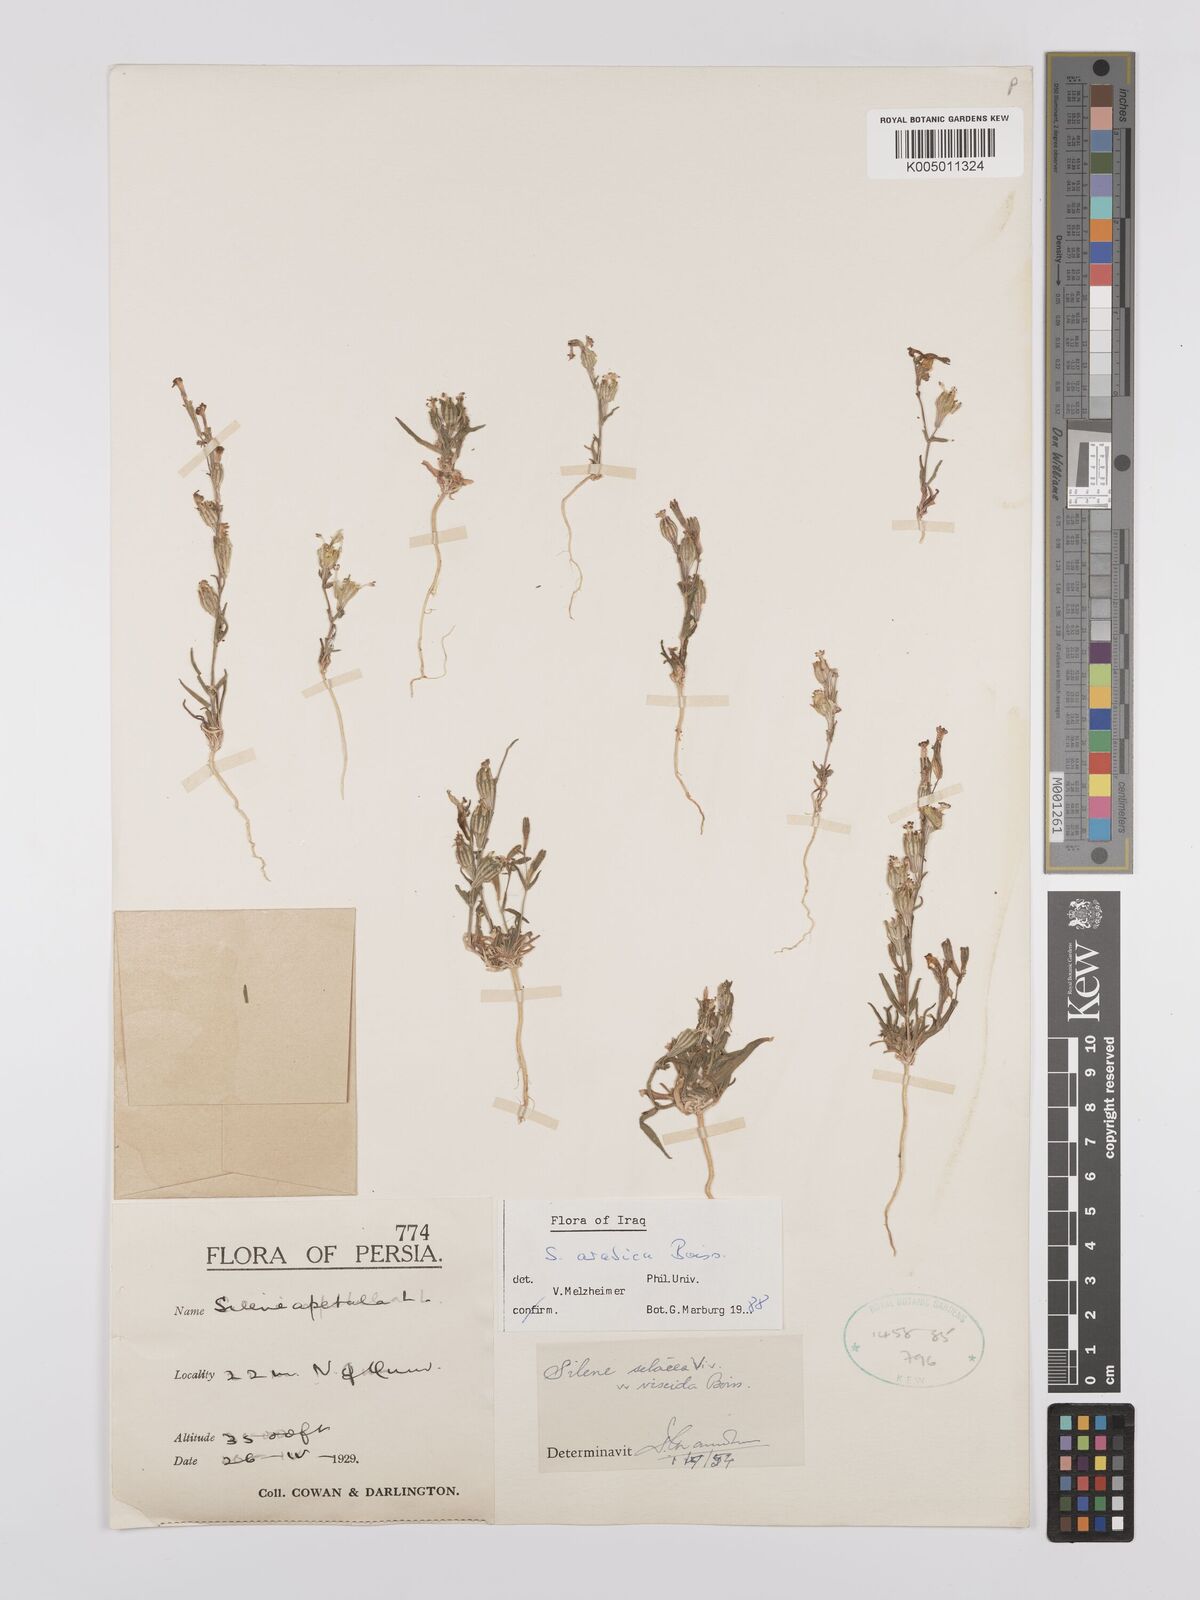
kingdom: Plantae
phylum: Tracheophyta
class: Magnoliopsida
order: Caryophyllales
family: Caryophyllaceae
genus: Silene
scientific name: Silene arabica
